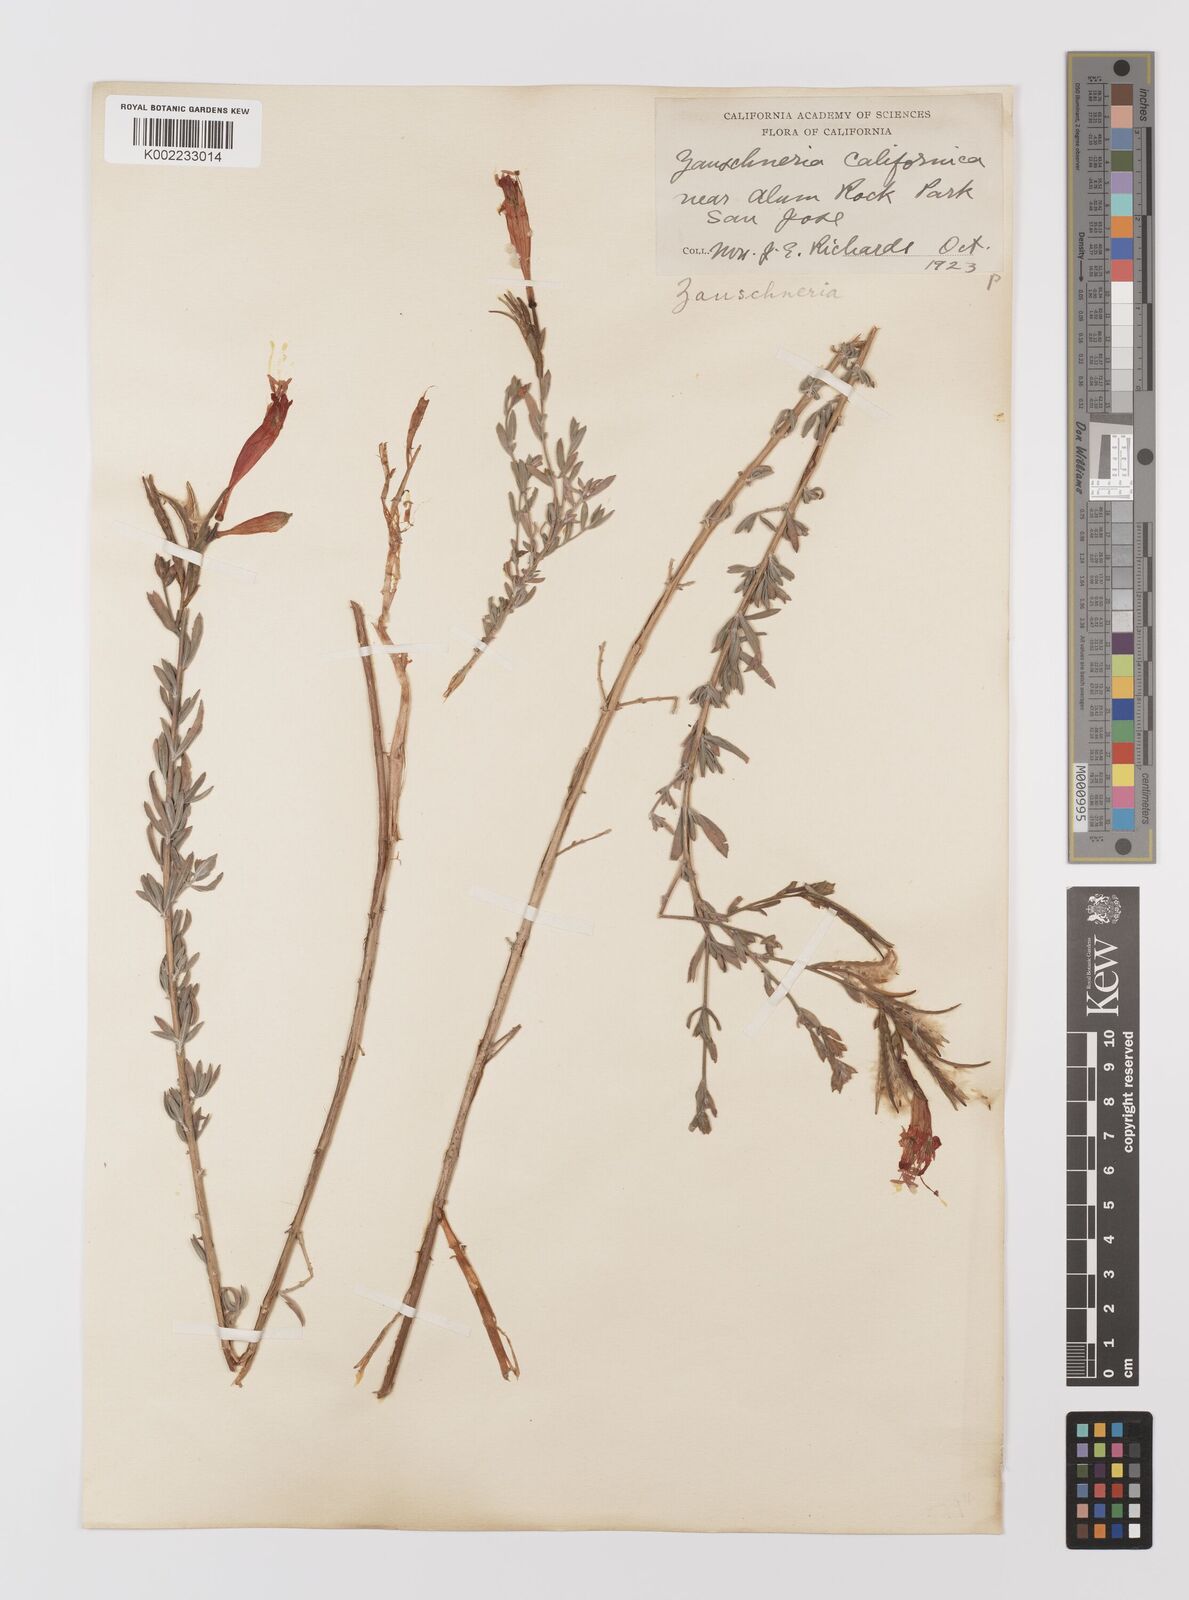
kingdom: Plantae
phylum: Tracheophyta
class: Magnoliopsida
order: Myrtales
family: Onagraceae
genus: Epilobium
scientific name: Epilobium canum
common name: California-fuchsia
